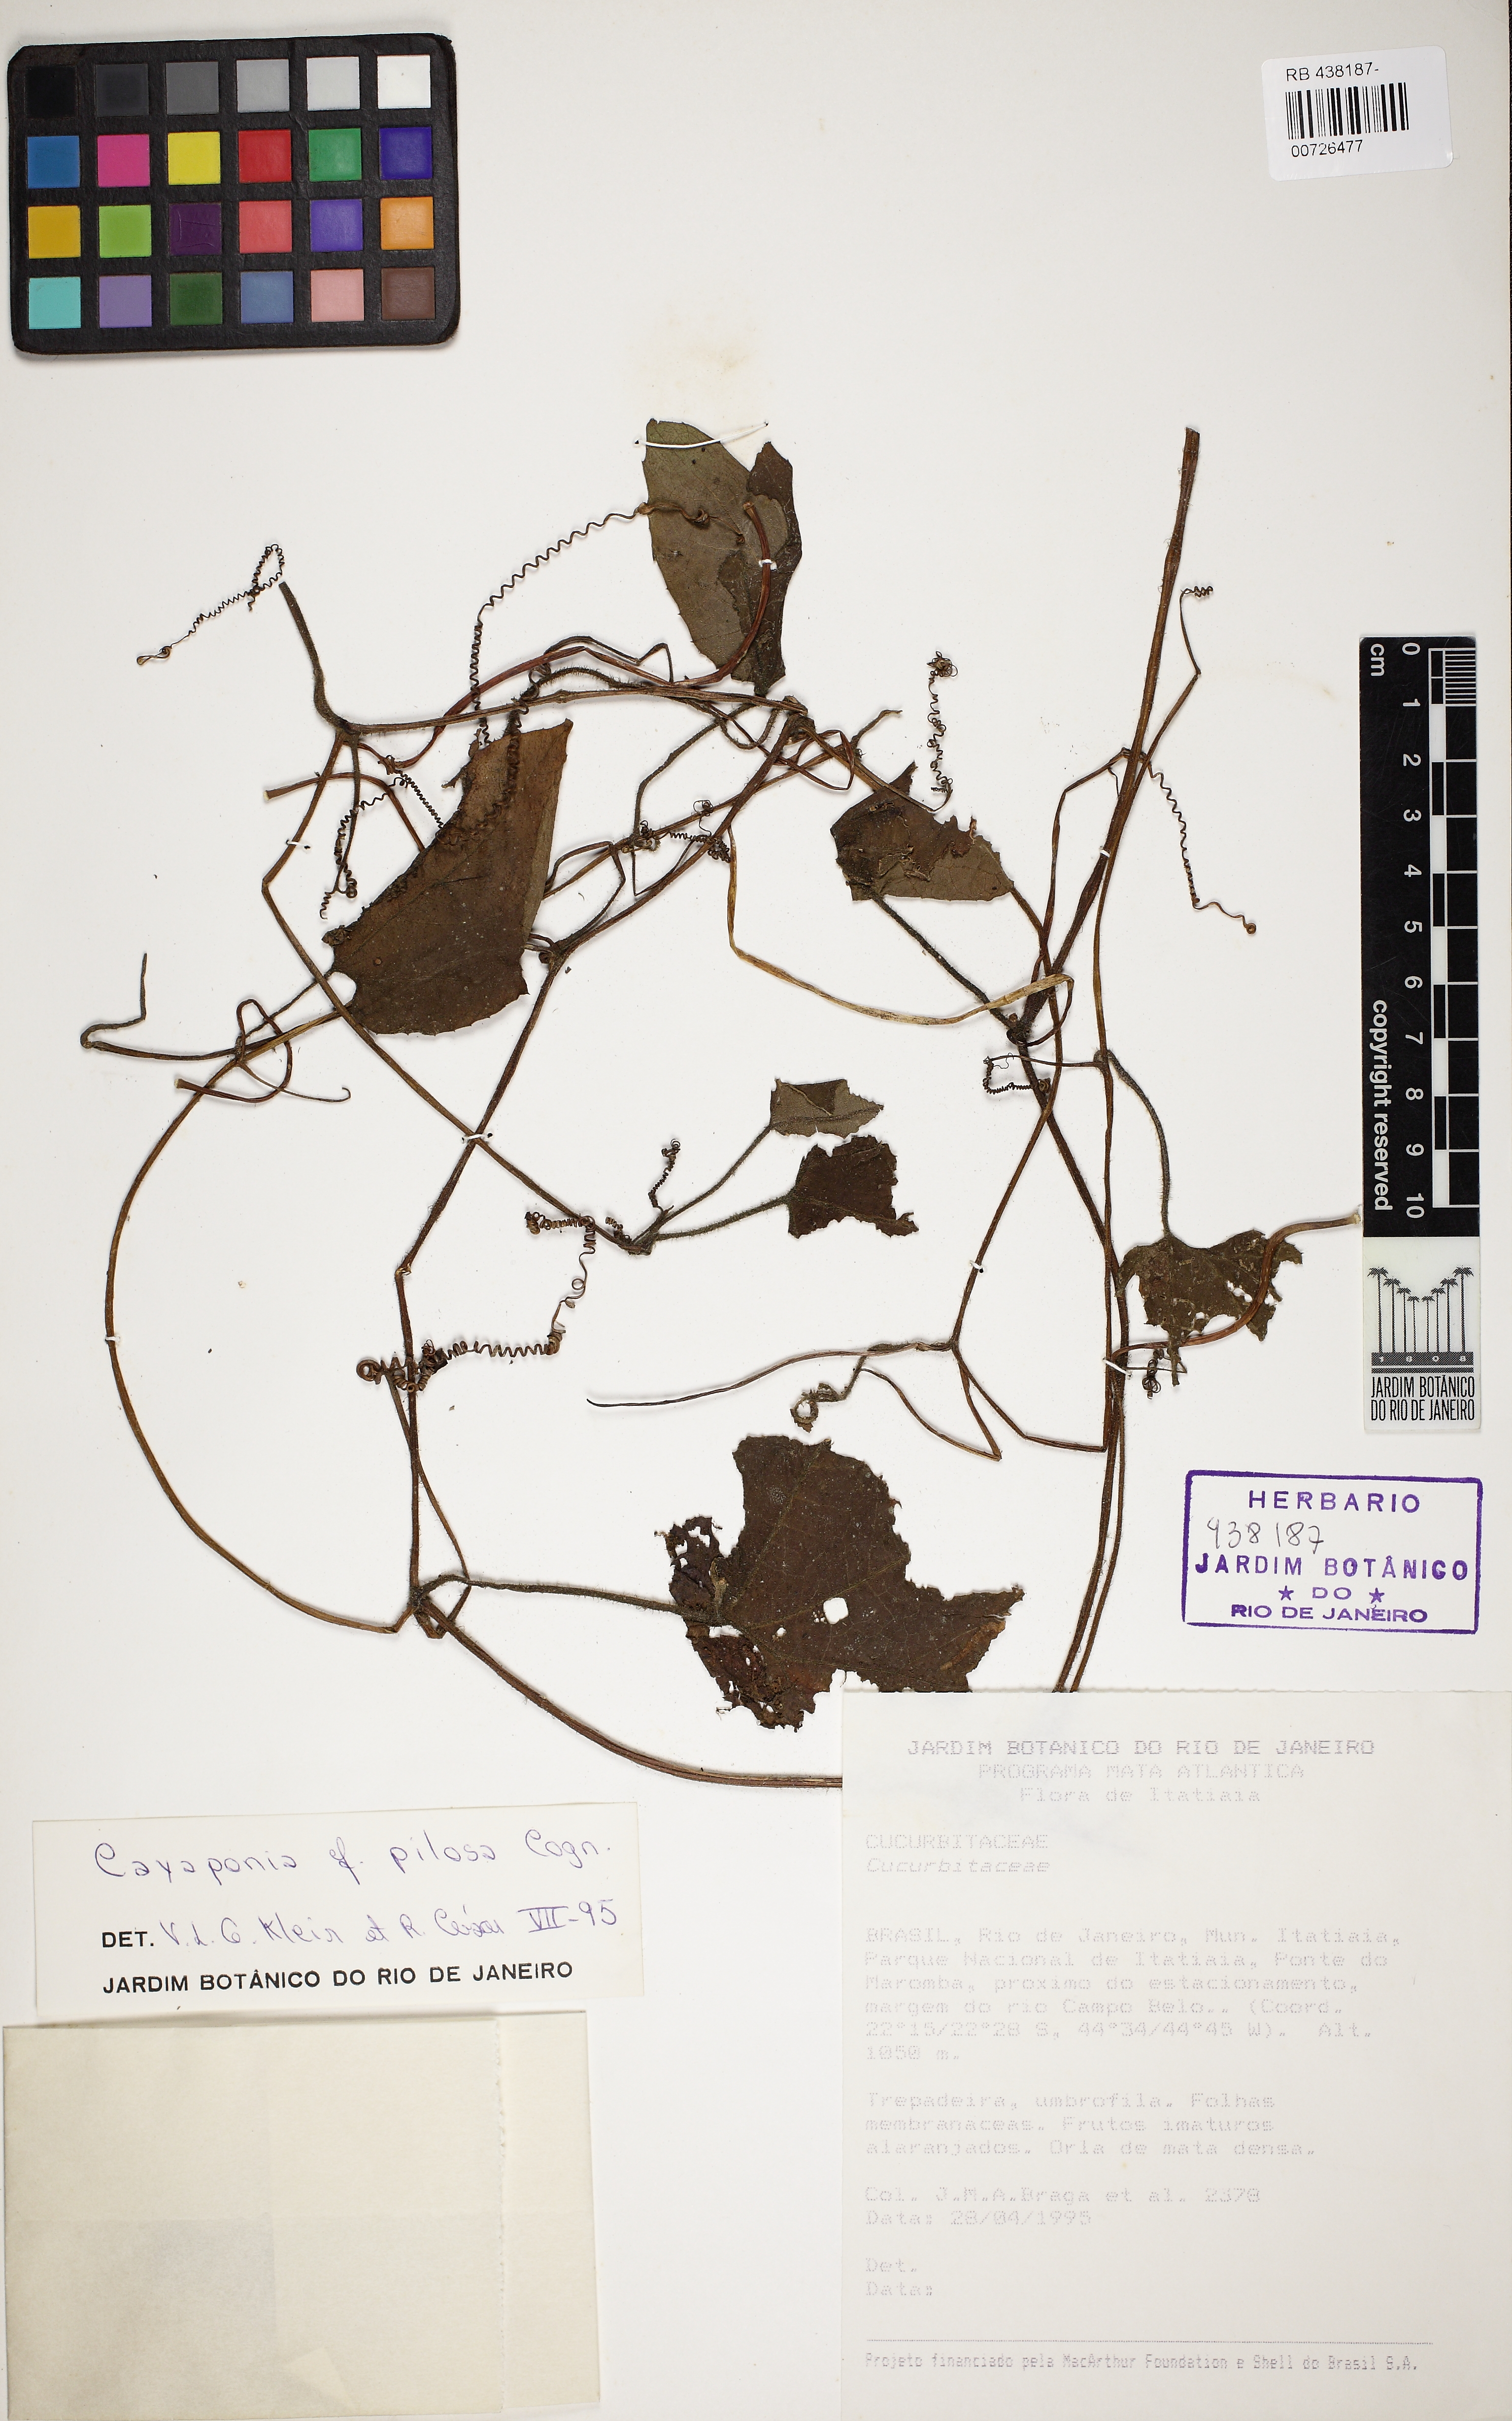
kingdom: Plantae
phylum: Tracheophyta
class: Magnoliopsida
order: Cucurbitales
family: Cucurbitaceae
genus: Cayaponia
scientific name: Cayaponia pilosa
